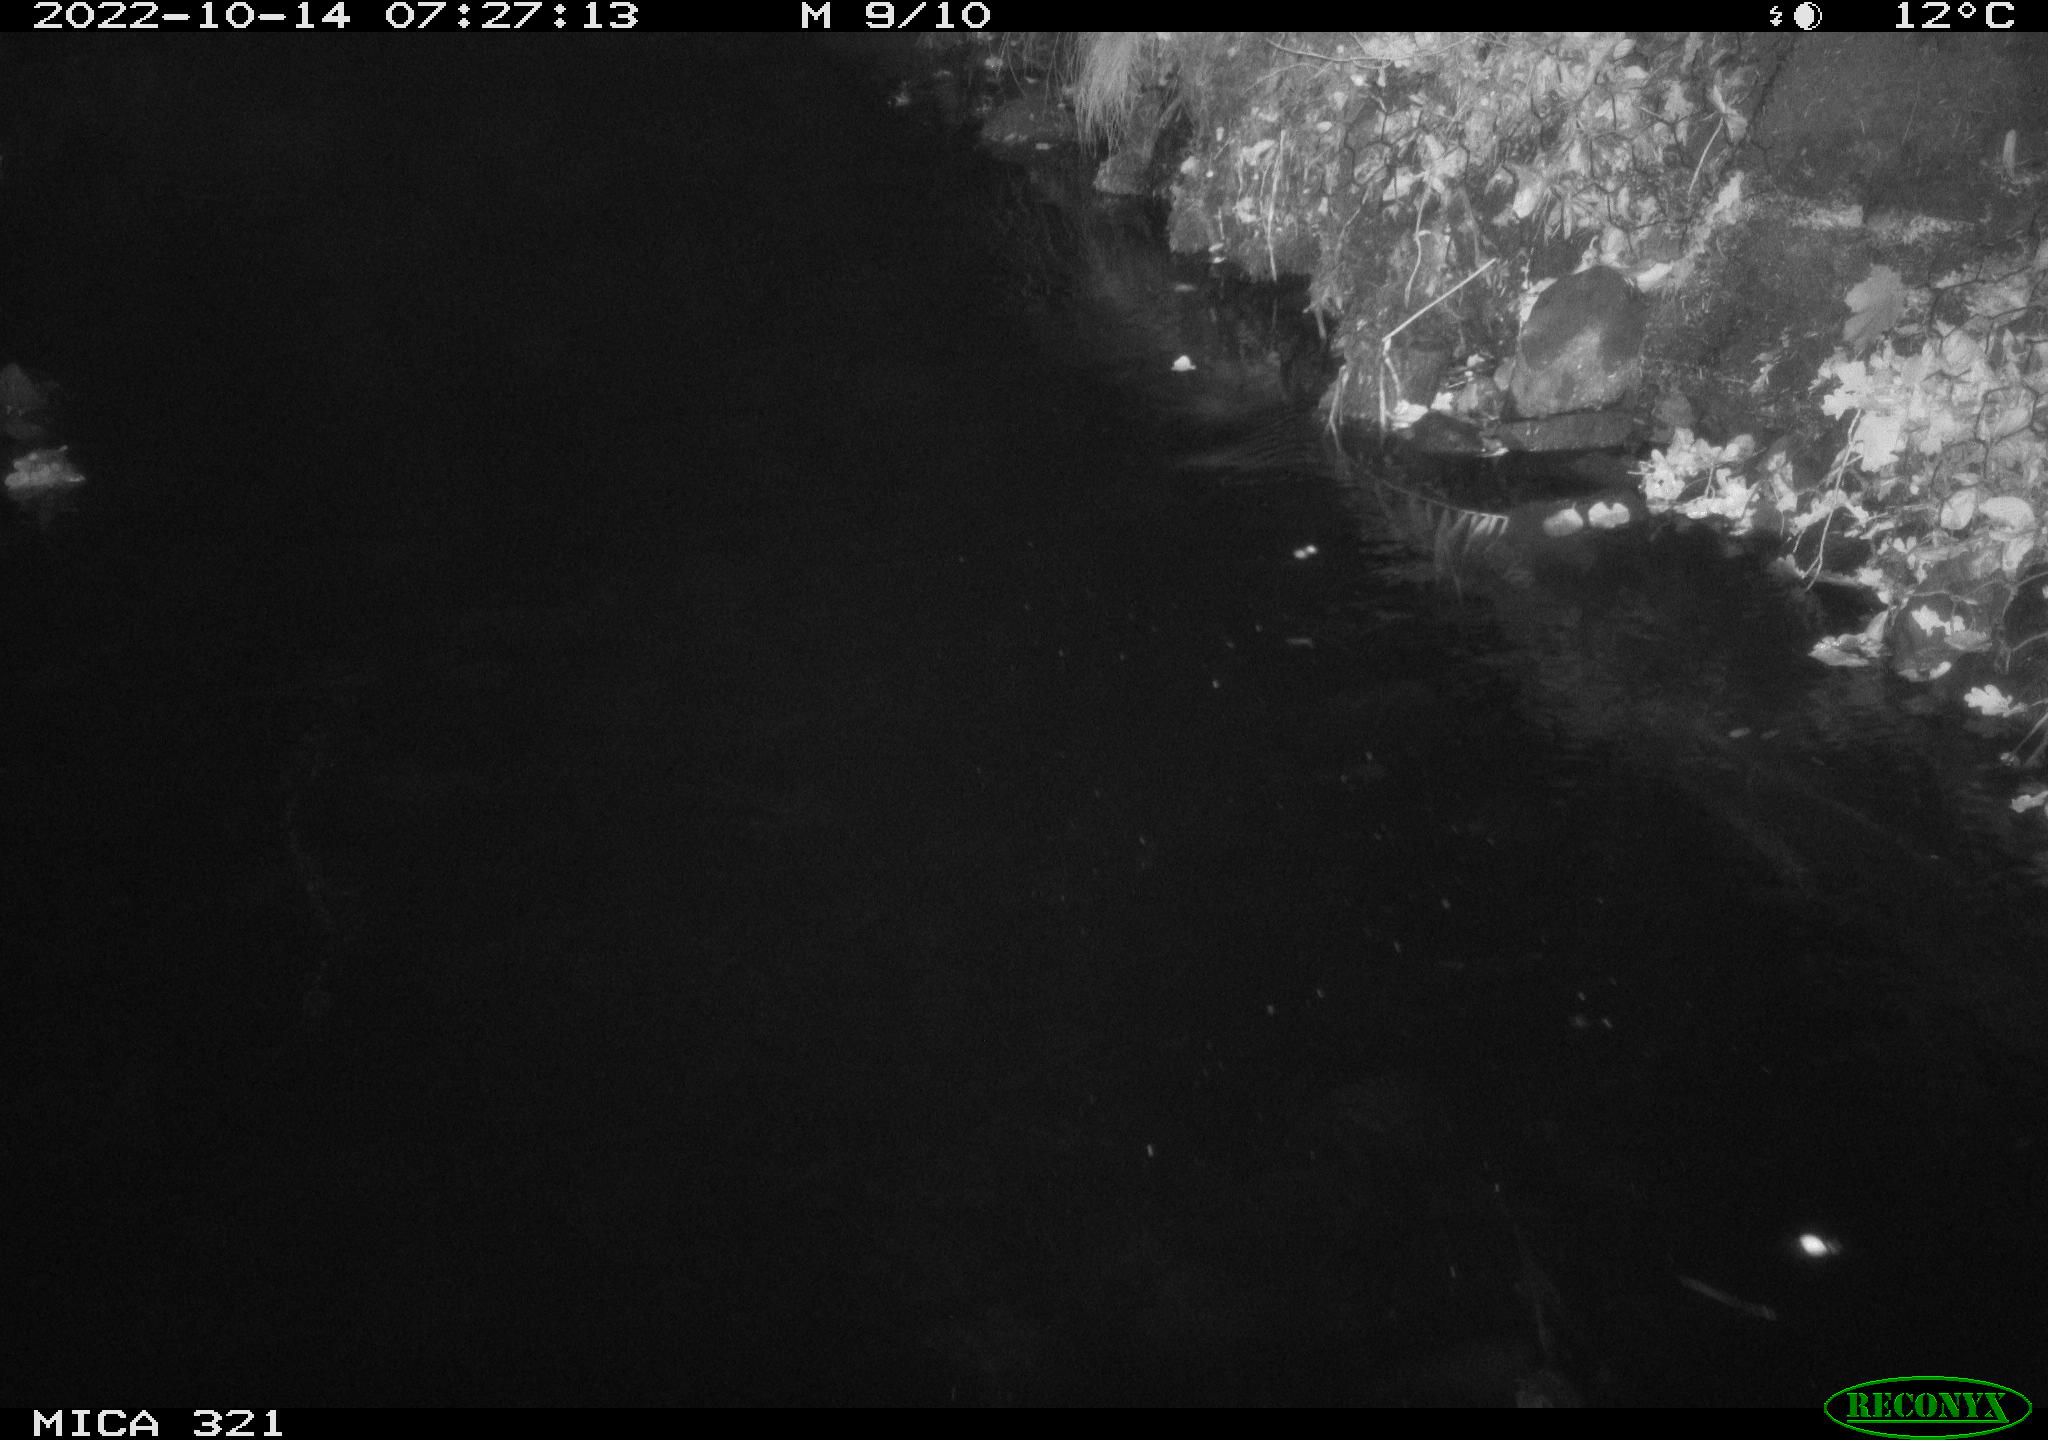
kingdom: Animalia
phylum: Chordata
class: Mammalia
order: Rodentia
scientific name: Rodentia
